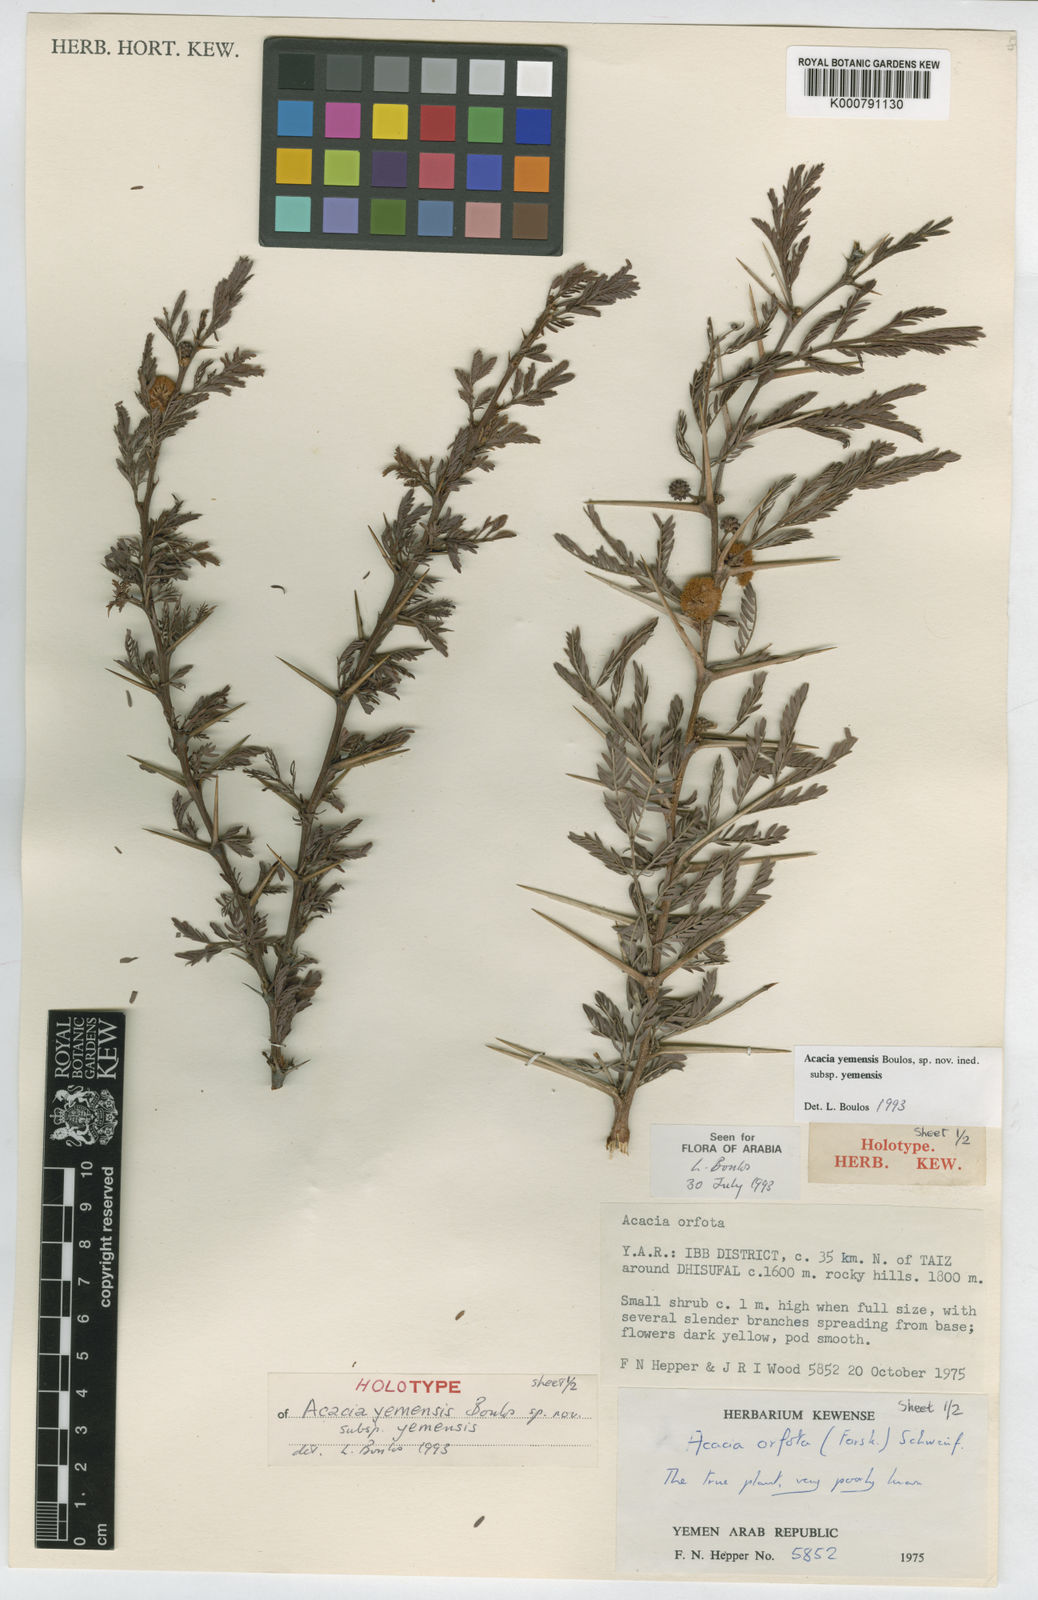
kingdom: Plantae
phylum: Tracheophyta
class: Magnoliopsida
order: Fabales
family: Fabaceae
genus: Acacia
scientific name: Acacia
